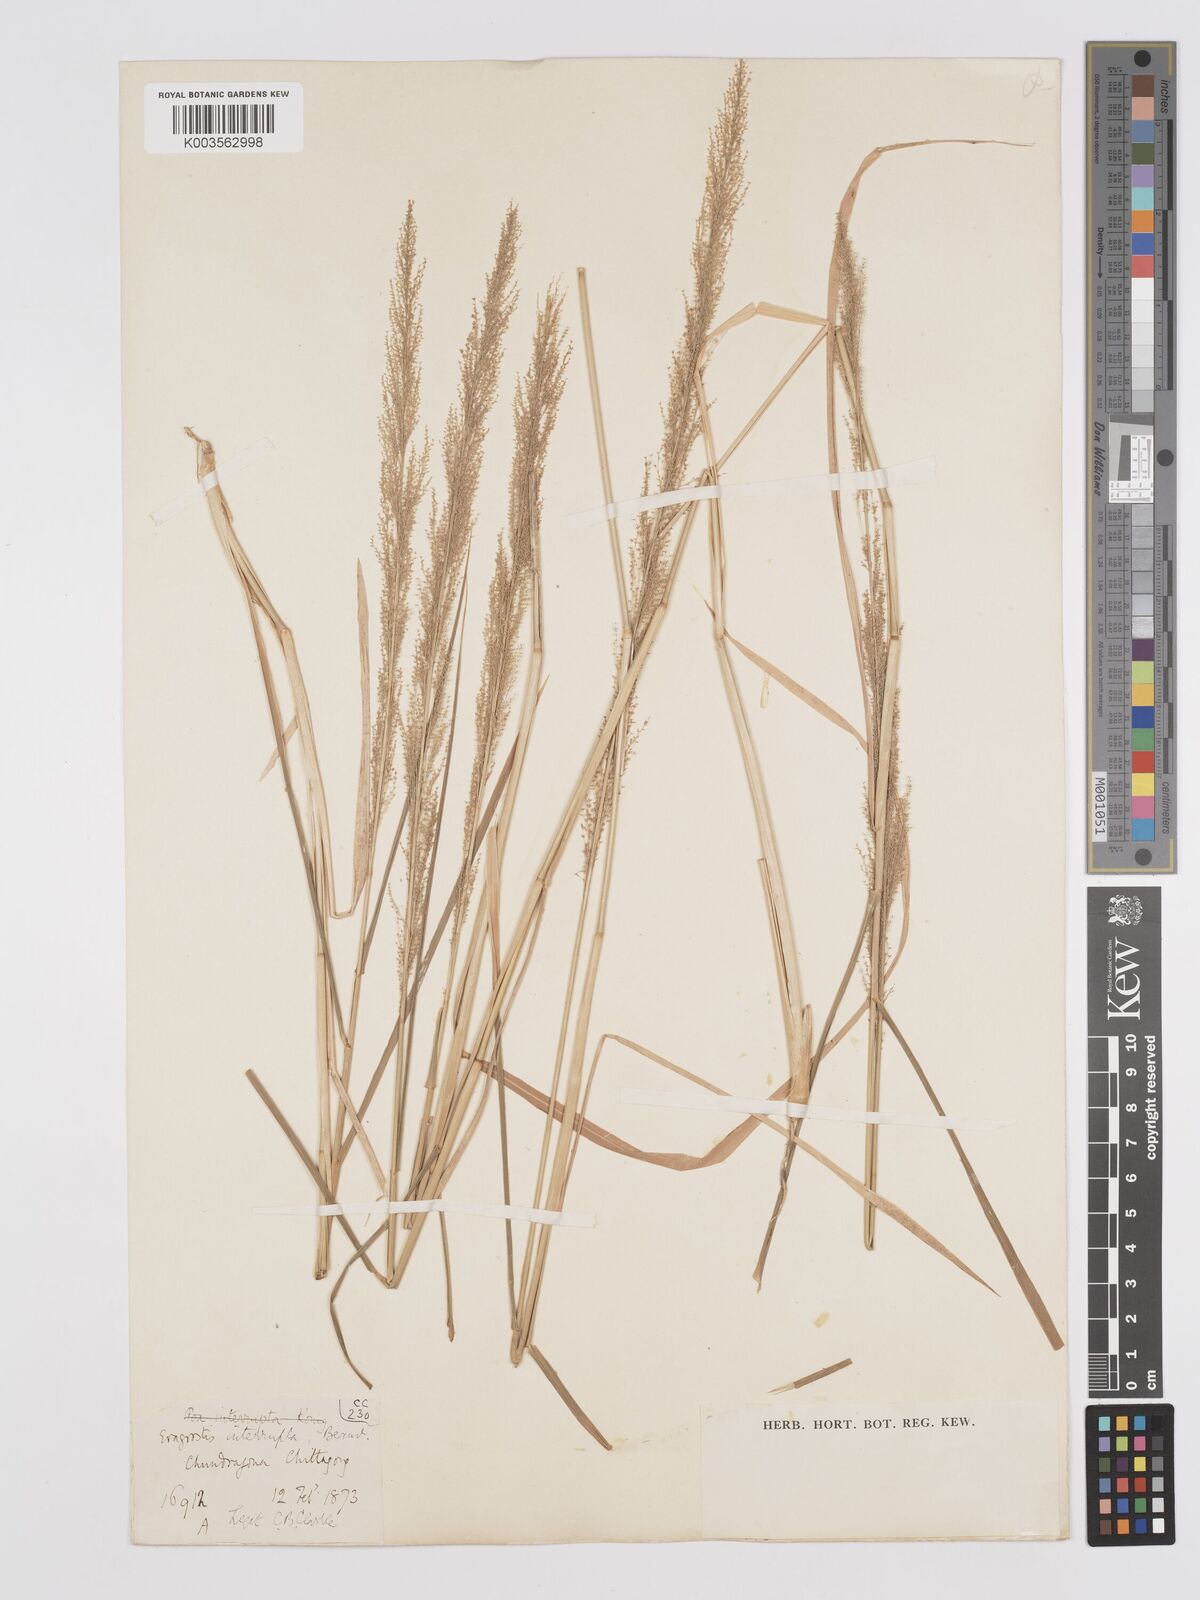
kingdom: Plantae
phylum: Tracheophyta
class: Liliopsida
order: Poales
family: Poaceae
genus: Eragrostis
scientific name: Eragrostis japonica
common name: Pond lovegrass
